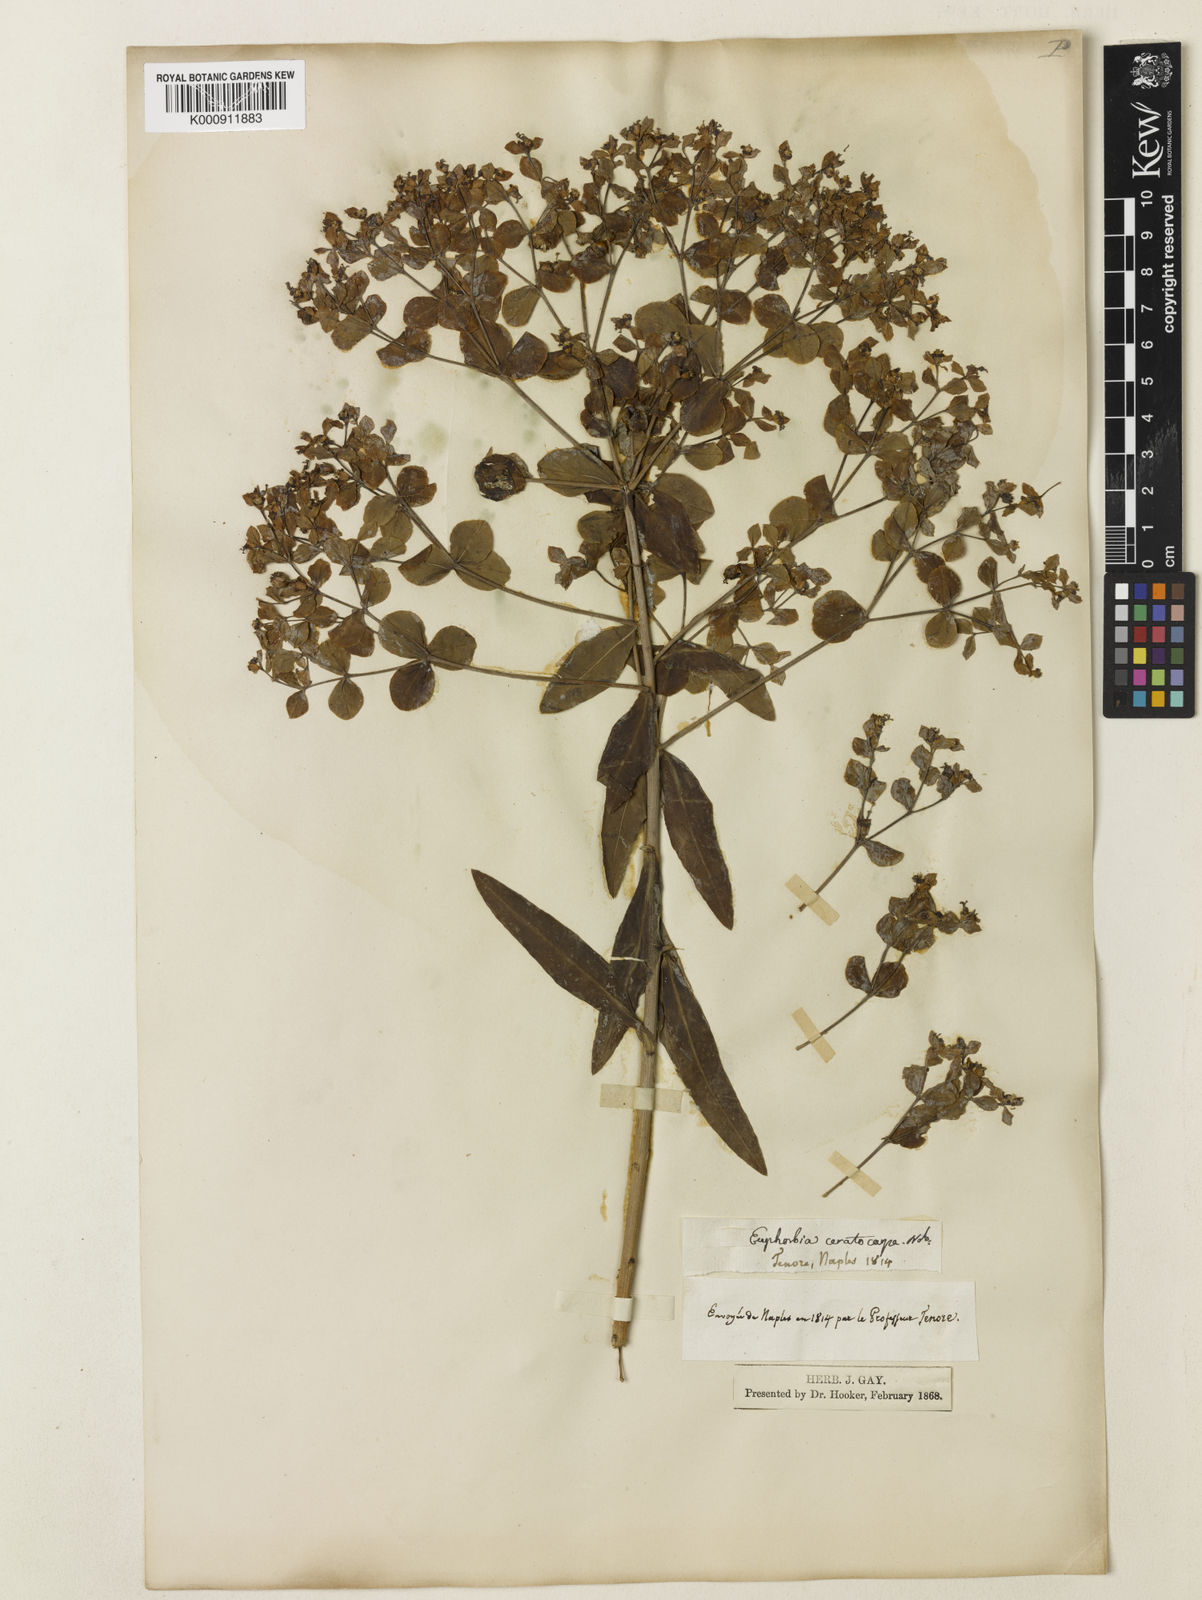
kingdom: Plantae
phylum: Tracheophyta
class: Magnoliopsida
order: Malpighiales
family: Euphorbiaceae
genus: Euphorbia
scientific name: Euphorbia
